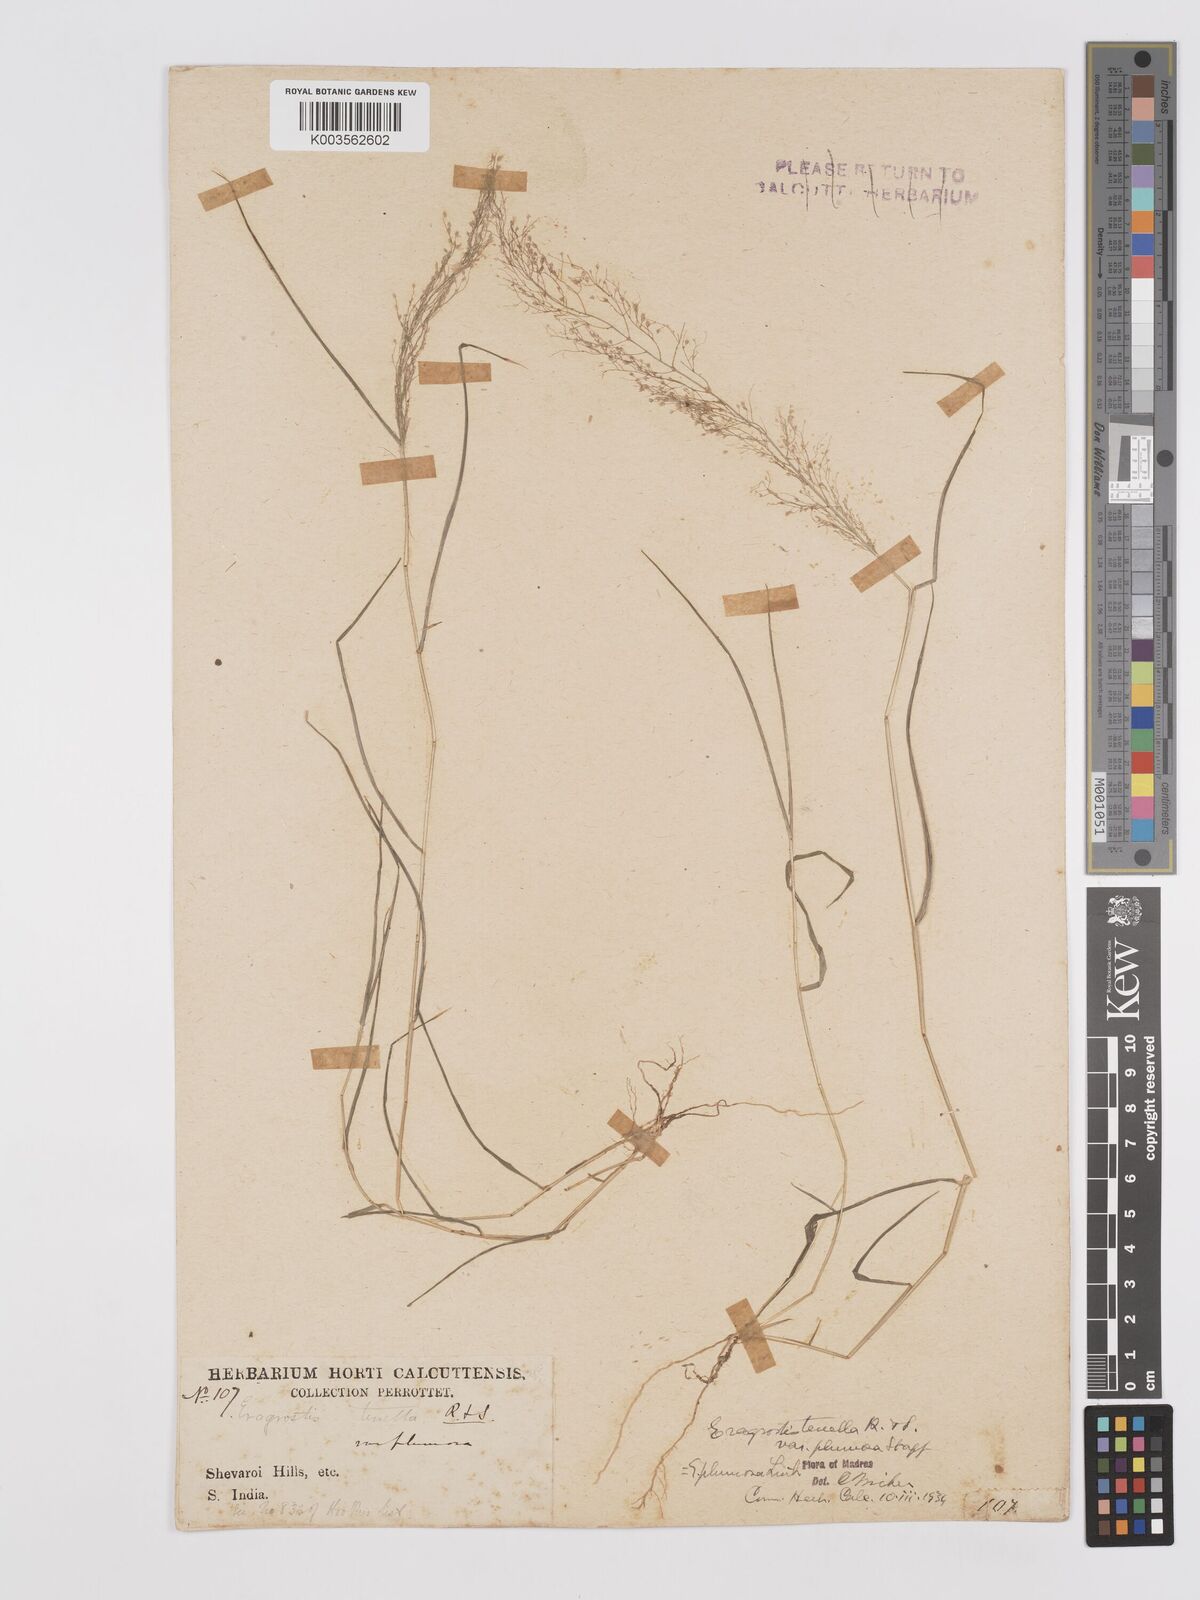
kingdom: Plantae
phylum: Tracheophyta
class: Liliopsida
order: Poales
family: Poaceae
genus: Eragrostis
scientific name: Eragrostis tenella
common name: Japanese lovegrass
